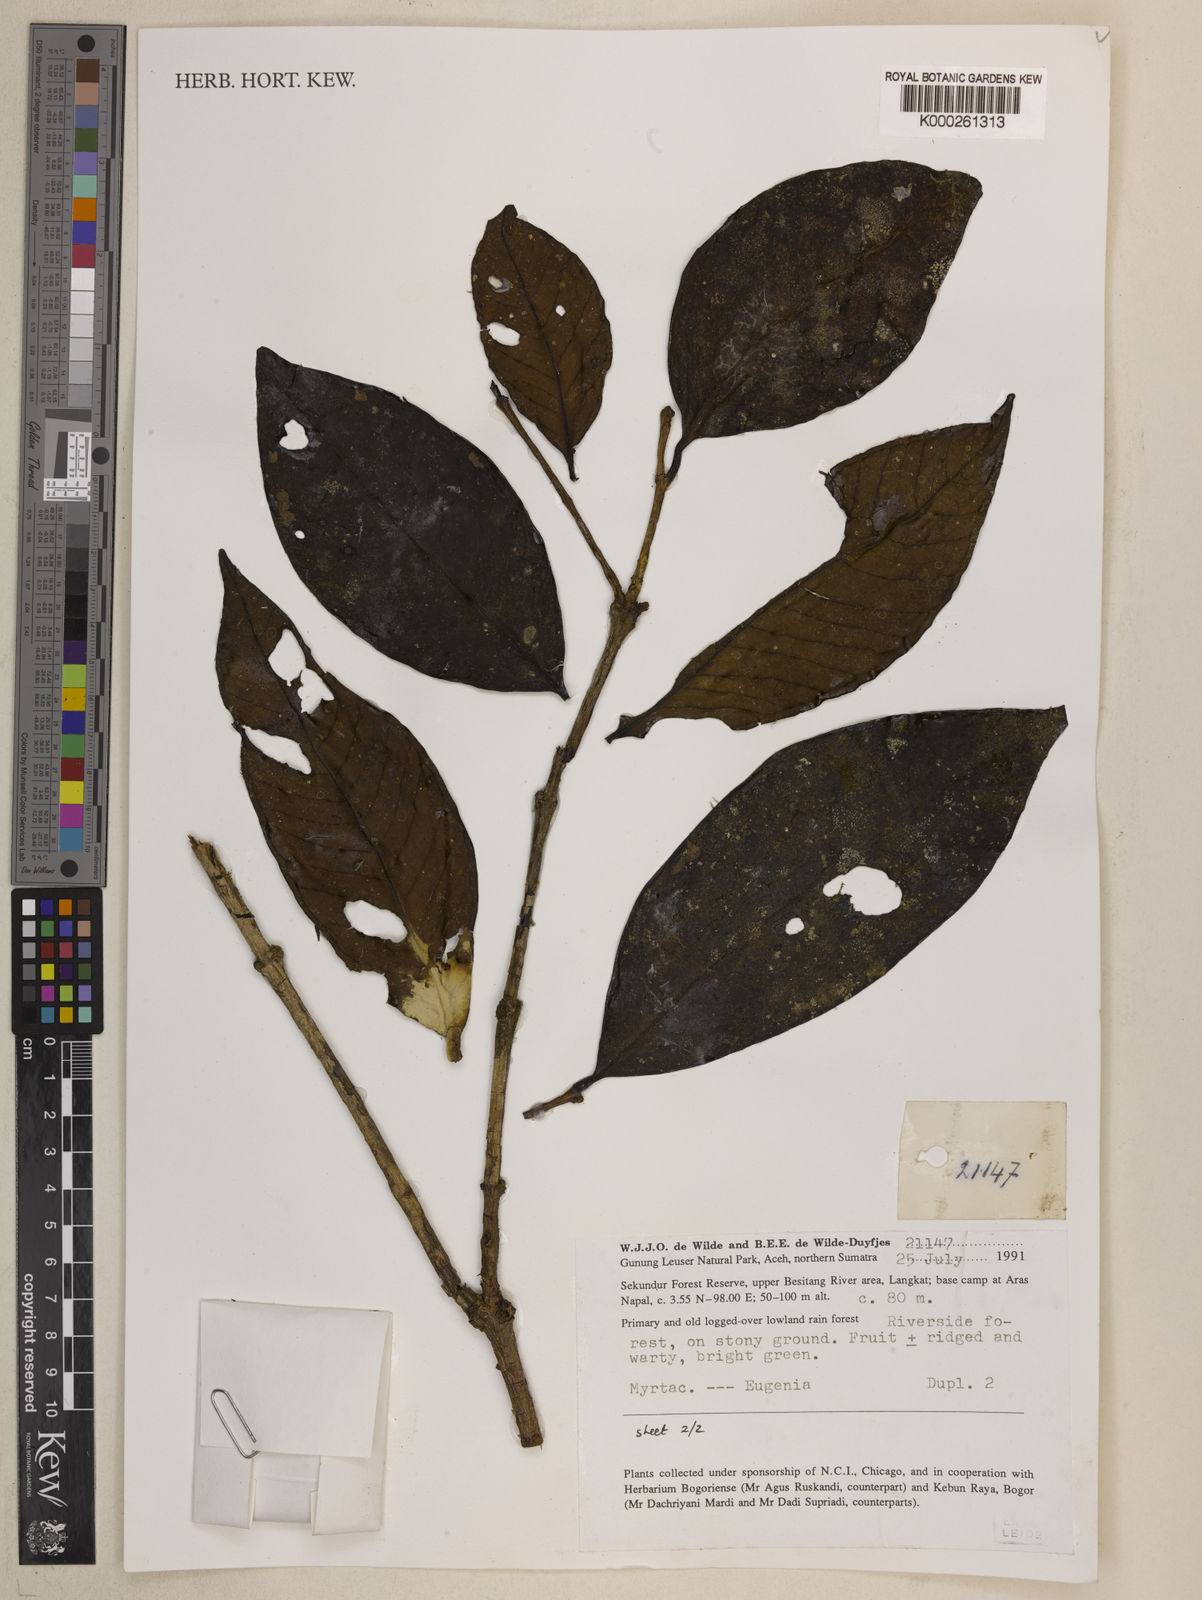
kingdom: Plantae
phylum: Tracheophyta
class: Magnoliopsida
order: Myrtales
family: Myrtaceae
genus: Syzygium
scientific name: Syzygium
